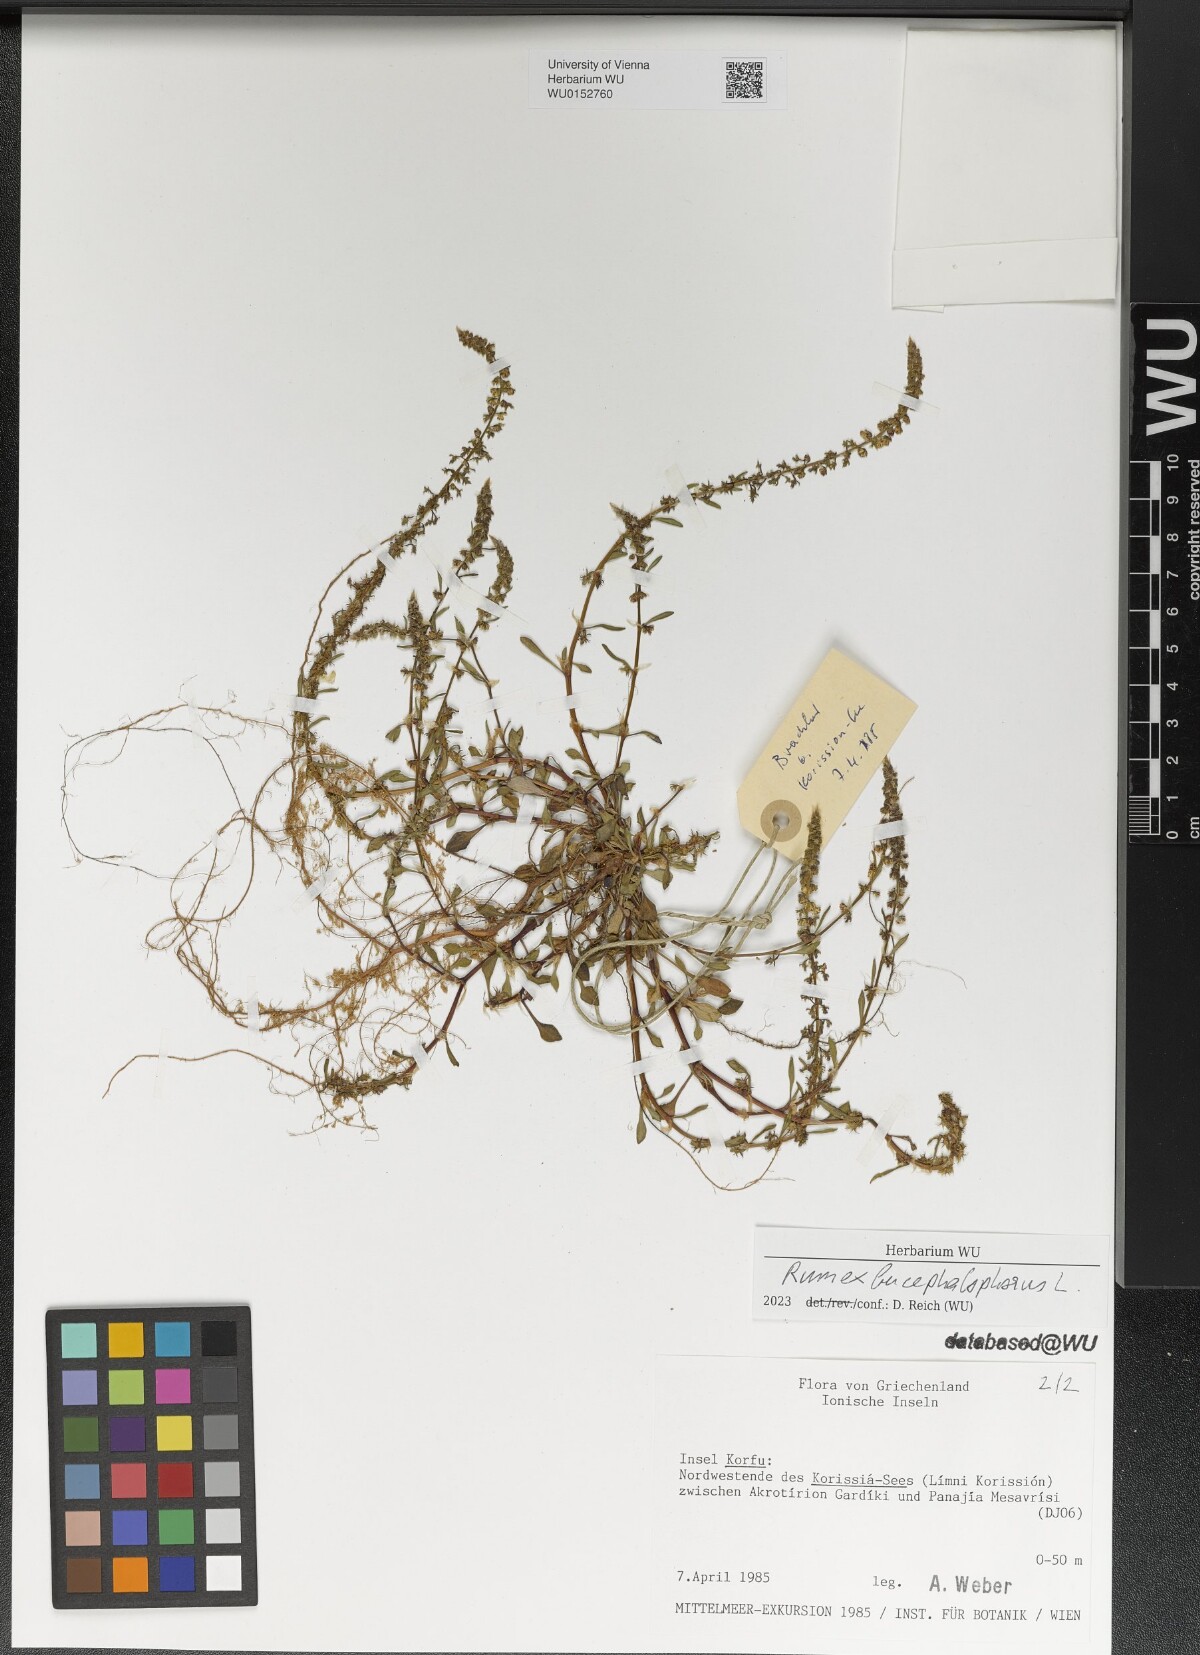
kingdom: Plantae
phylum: Tracheophyta
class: Magnoliopsida
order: Caryophyllales
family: Polygonaceae
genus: Rumex
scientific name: Rumex bucephalophorus
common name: Red dock
